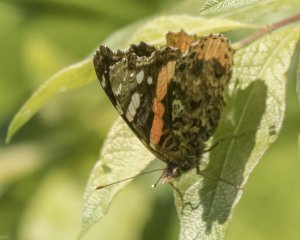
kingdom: Animalia
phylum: Arthropoda
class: Insecta
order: Lepidoptera
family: Nymphalidae
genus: Vanessa
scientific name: Vanessa atalanta
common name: Red Admiral
